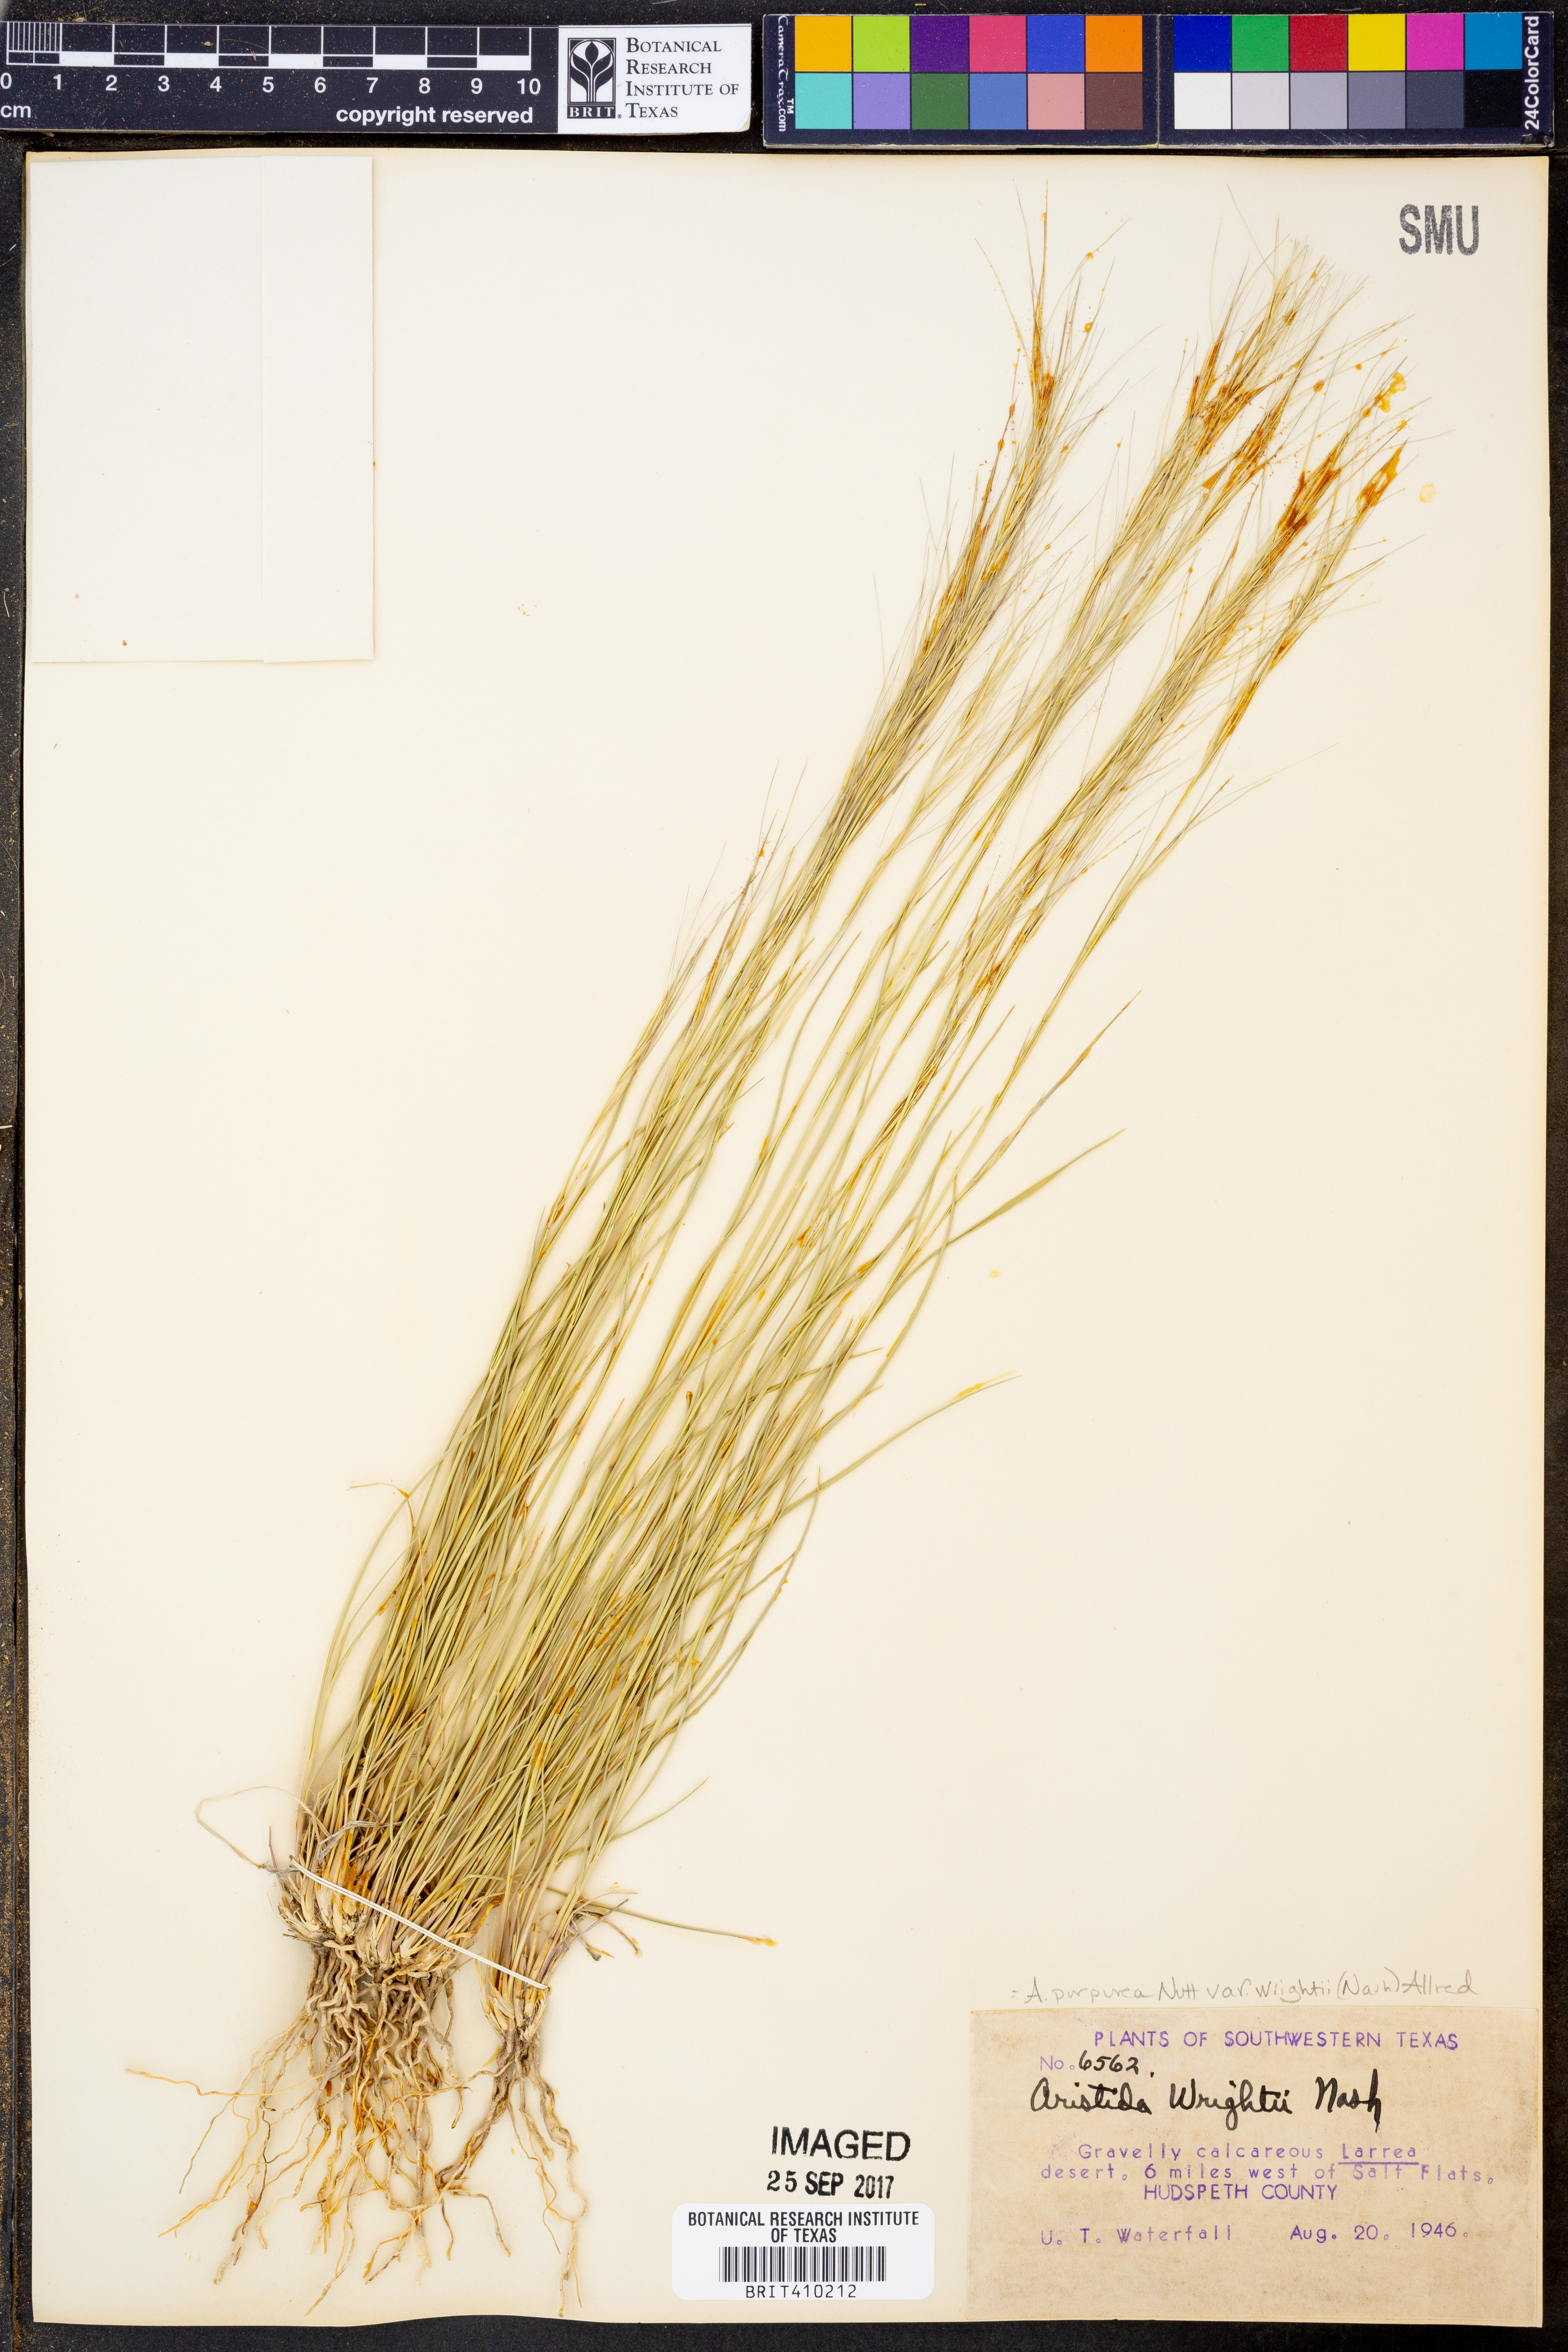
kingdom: Plantae
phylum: Tracheophyta
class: Liliopsida
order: Poales
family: Poaceae
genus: Aristida
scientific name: Aristida wrightii
